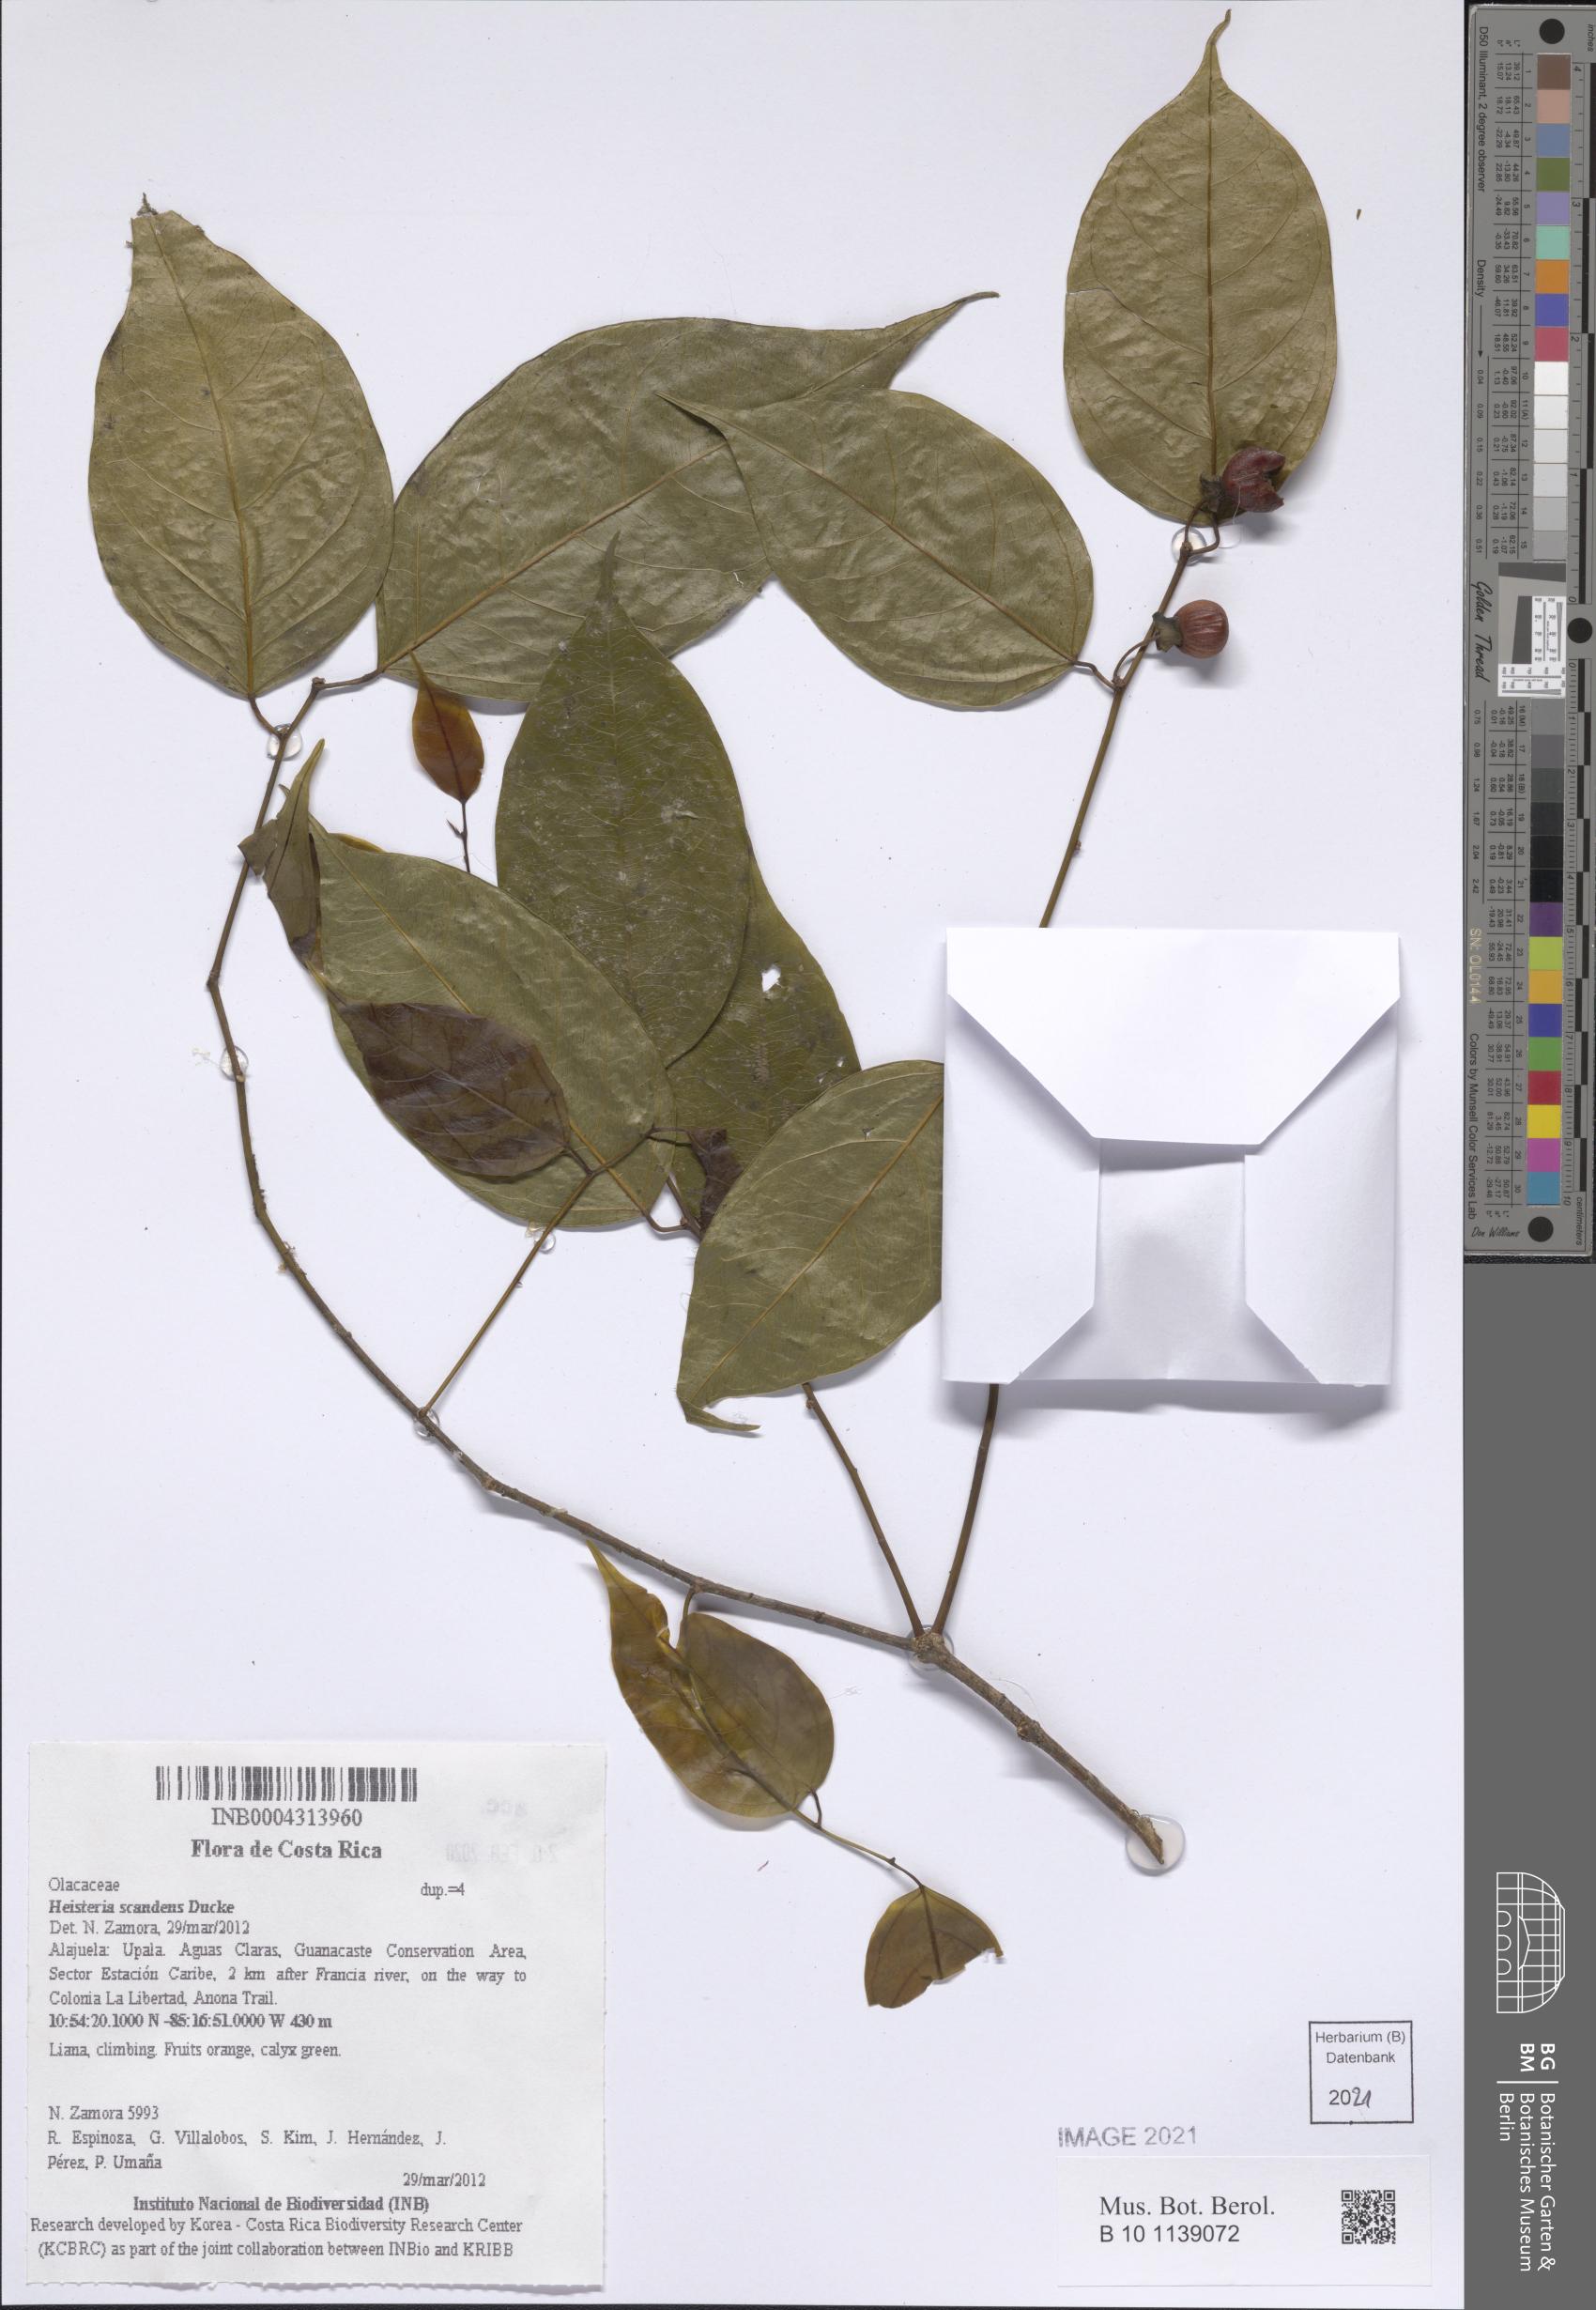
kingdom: Plantae
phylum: Tracheophyta
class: Magnoliopsida
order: Santalales
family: Erythropalaceae
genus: Heisteria
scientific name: Heisteria scandens
